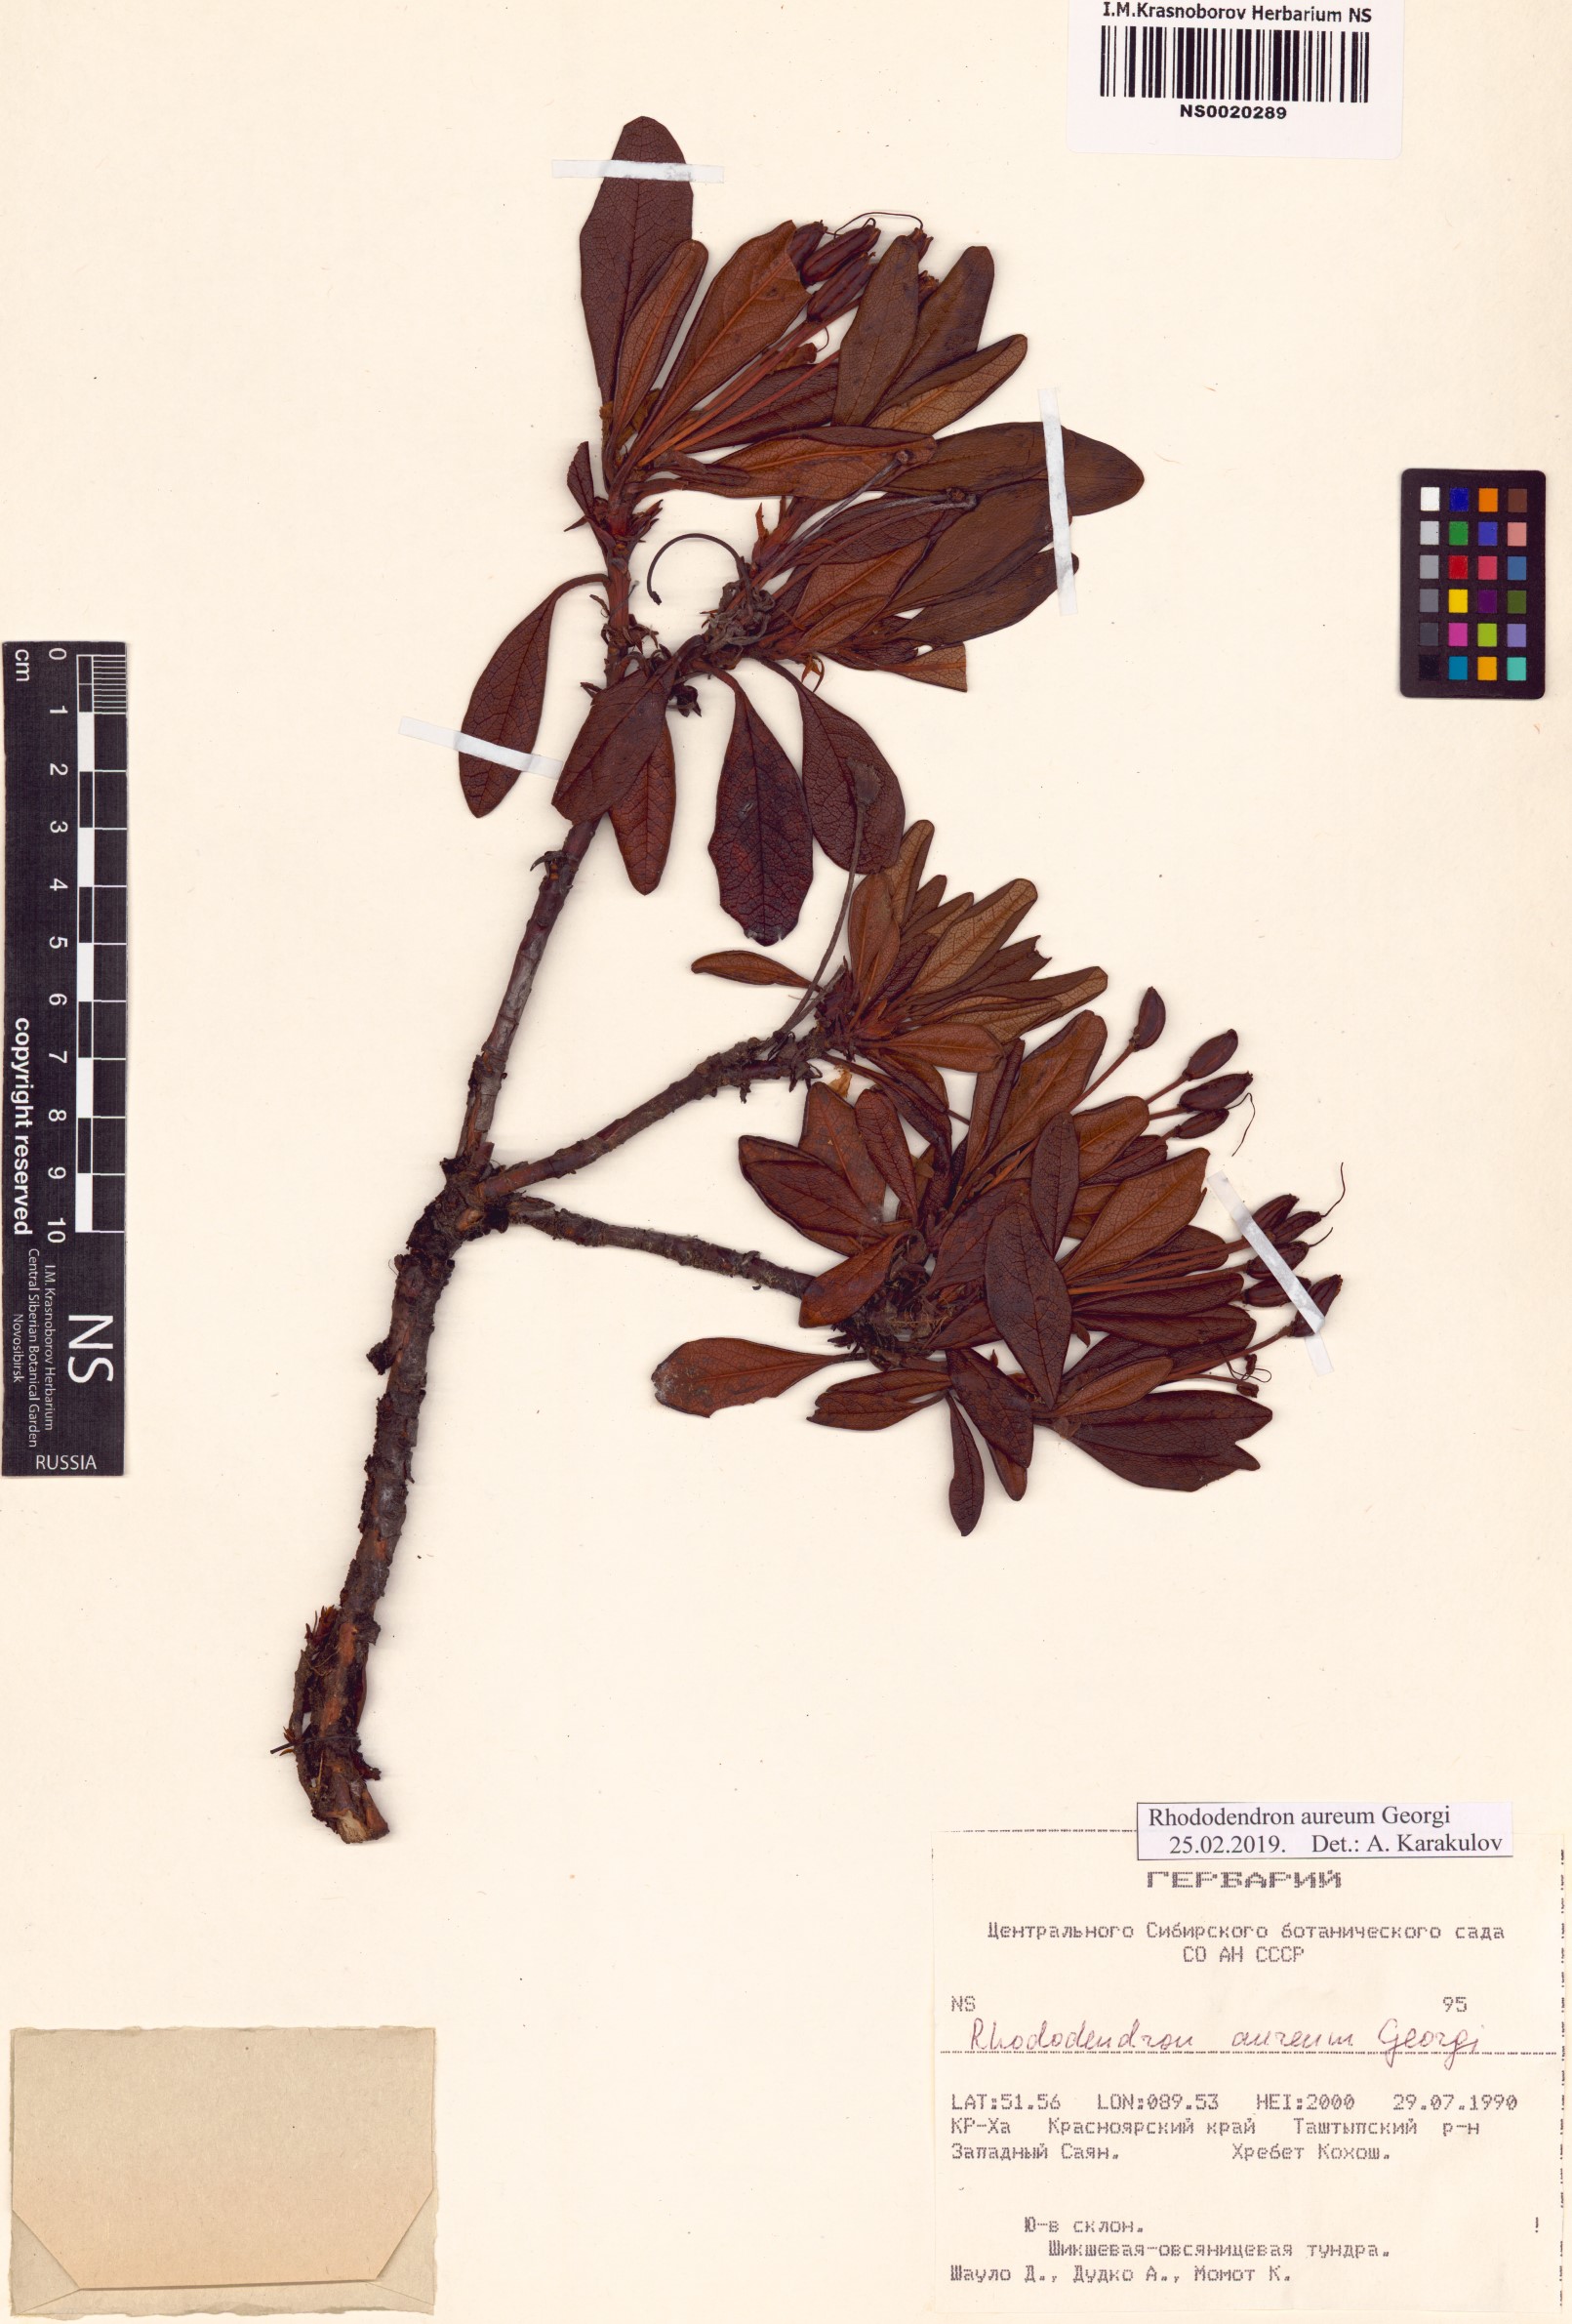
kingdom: Plantae
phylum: Tracheophyta
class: Magnoliopsida
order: Ericales
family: Ericaceae
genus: Rhododendron
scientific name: Rhododendron aureum
